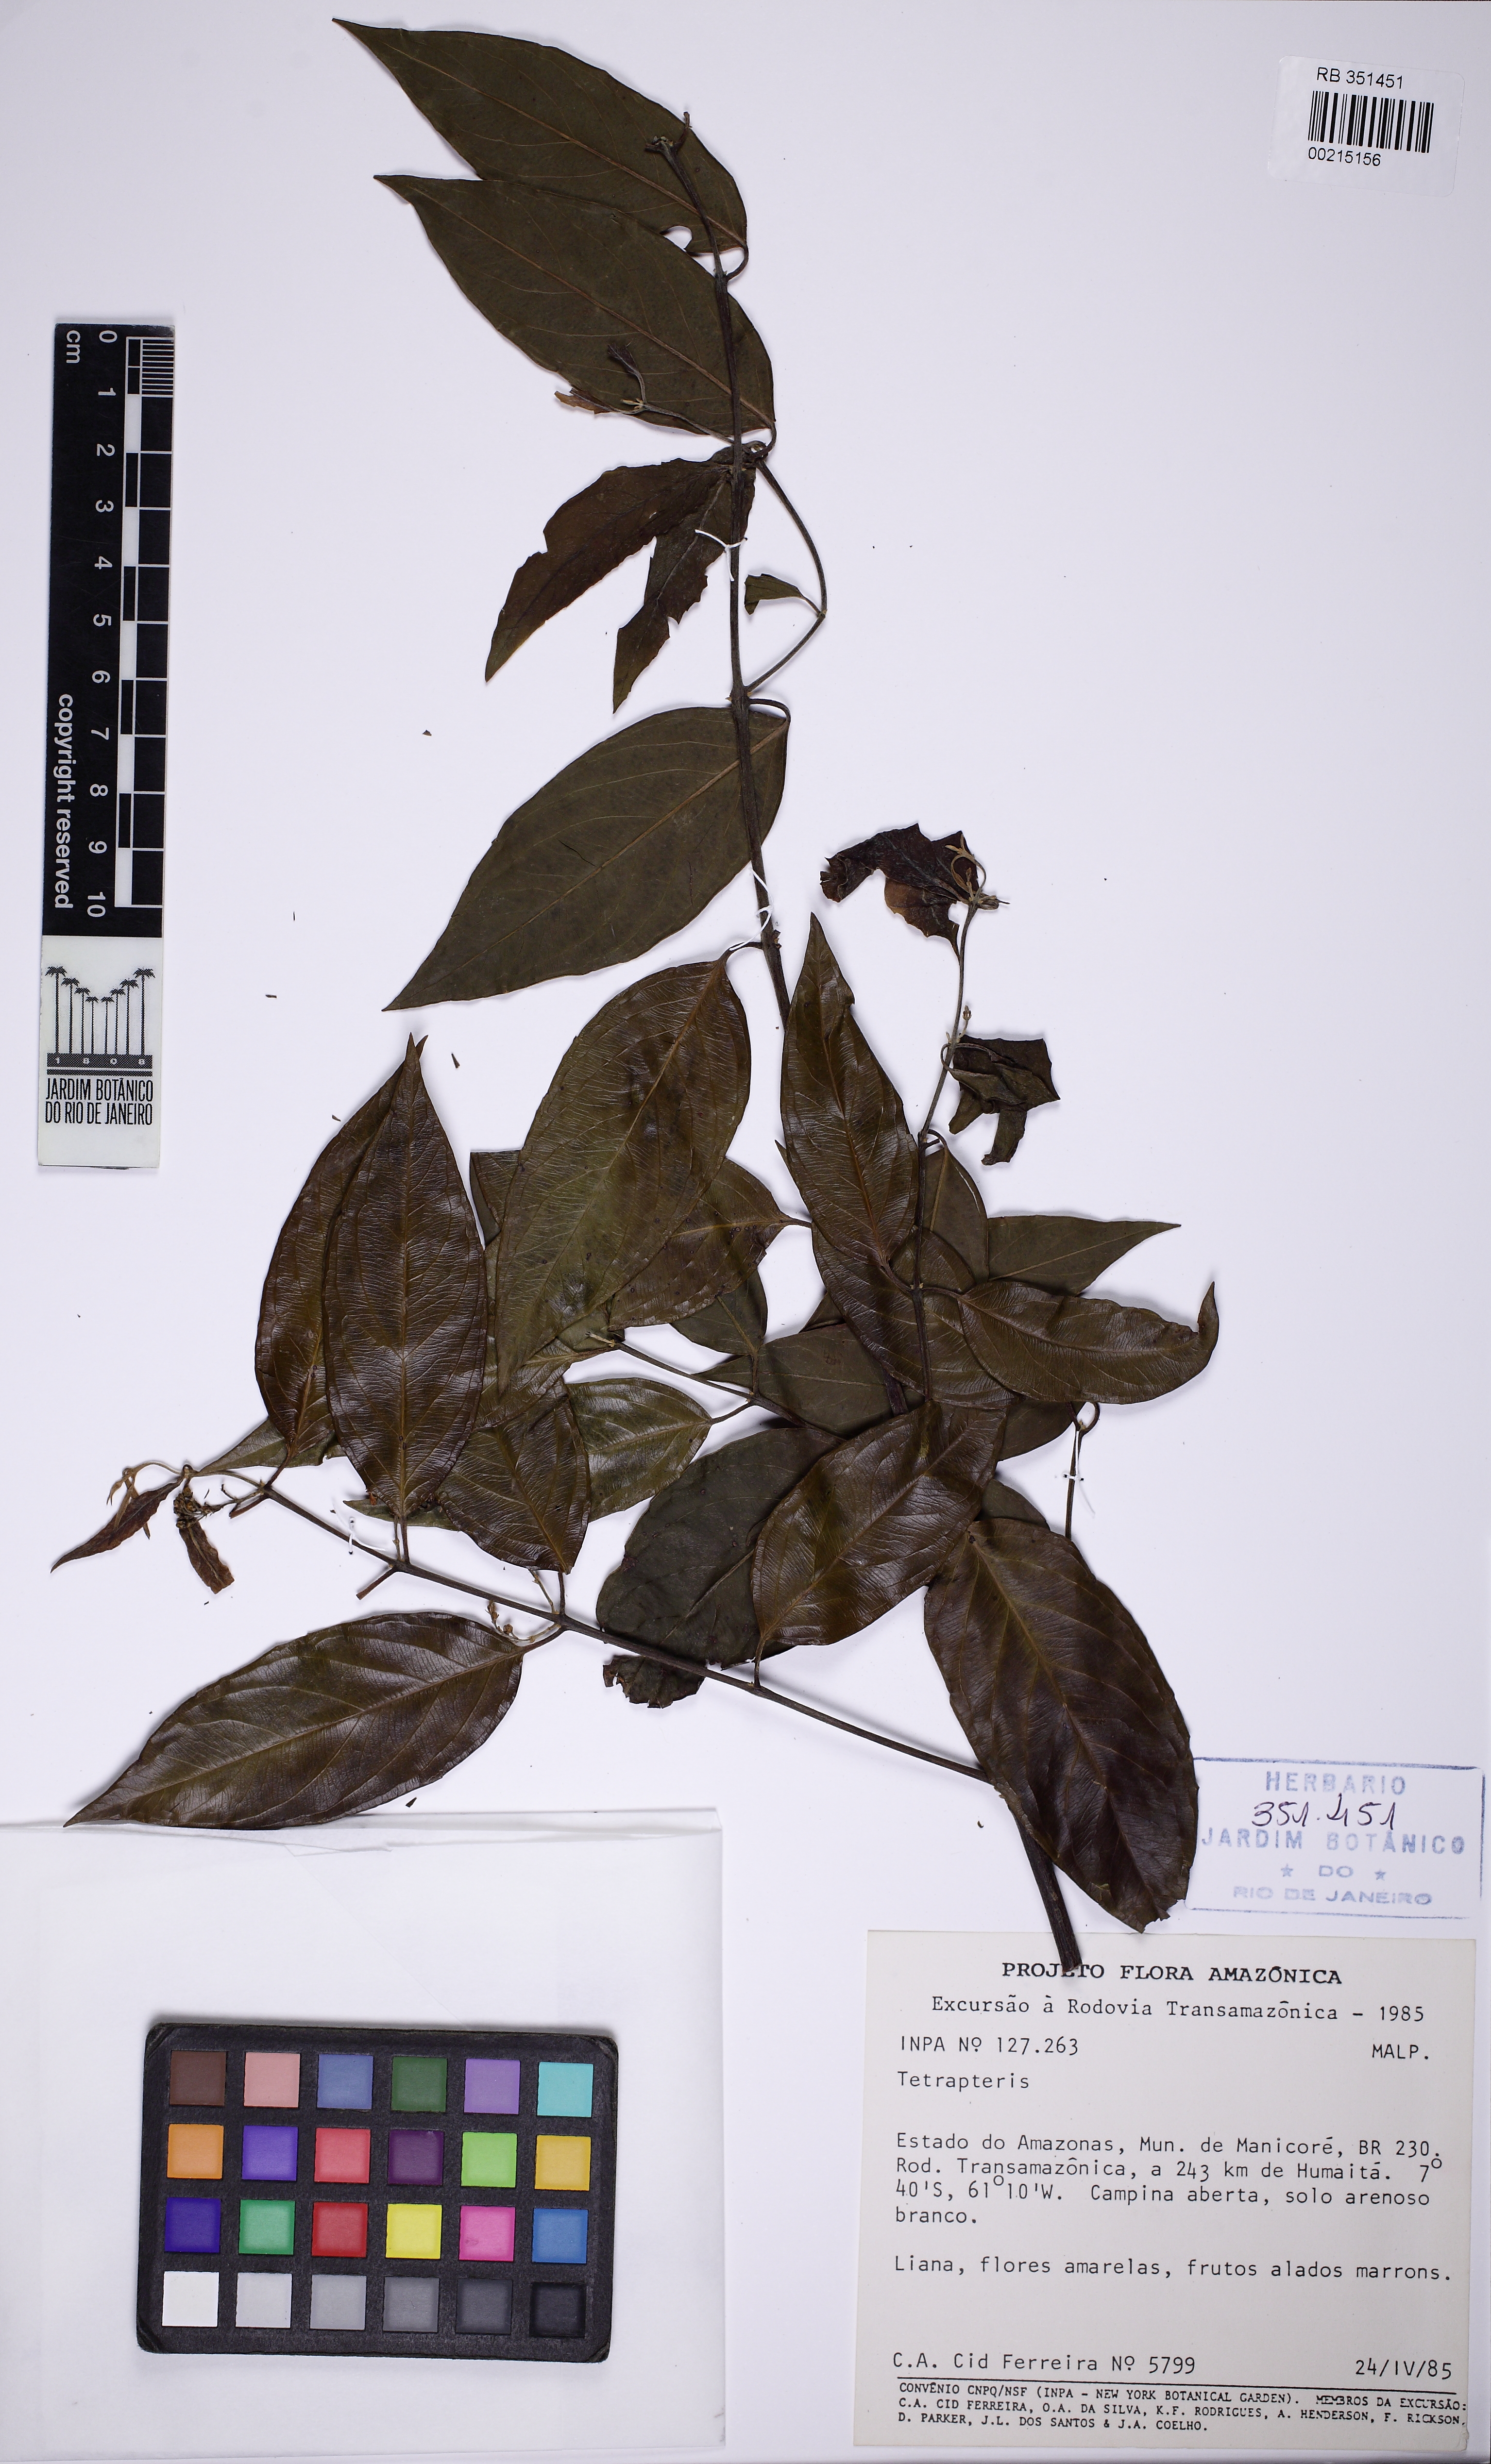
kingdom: Plantae
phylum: Tracheophyta
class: Magnoliopsida
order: Malpighiales
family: Malpighiaceae
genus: Tetrapterys
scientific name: Tetrapterys
